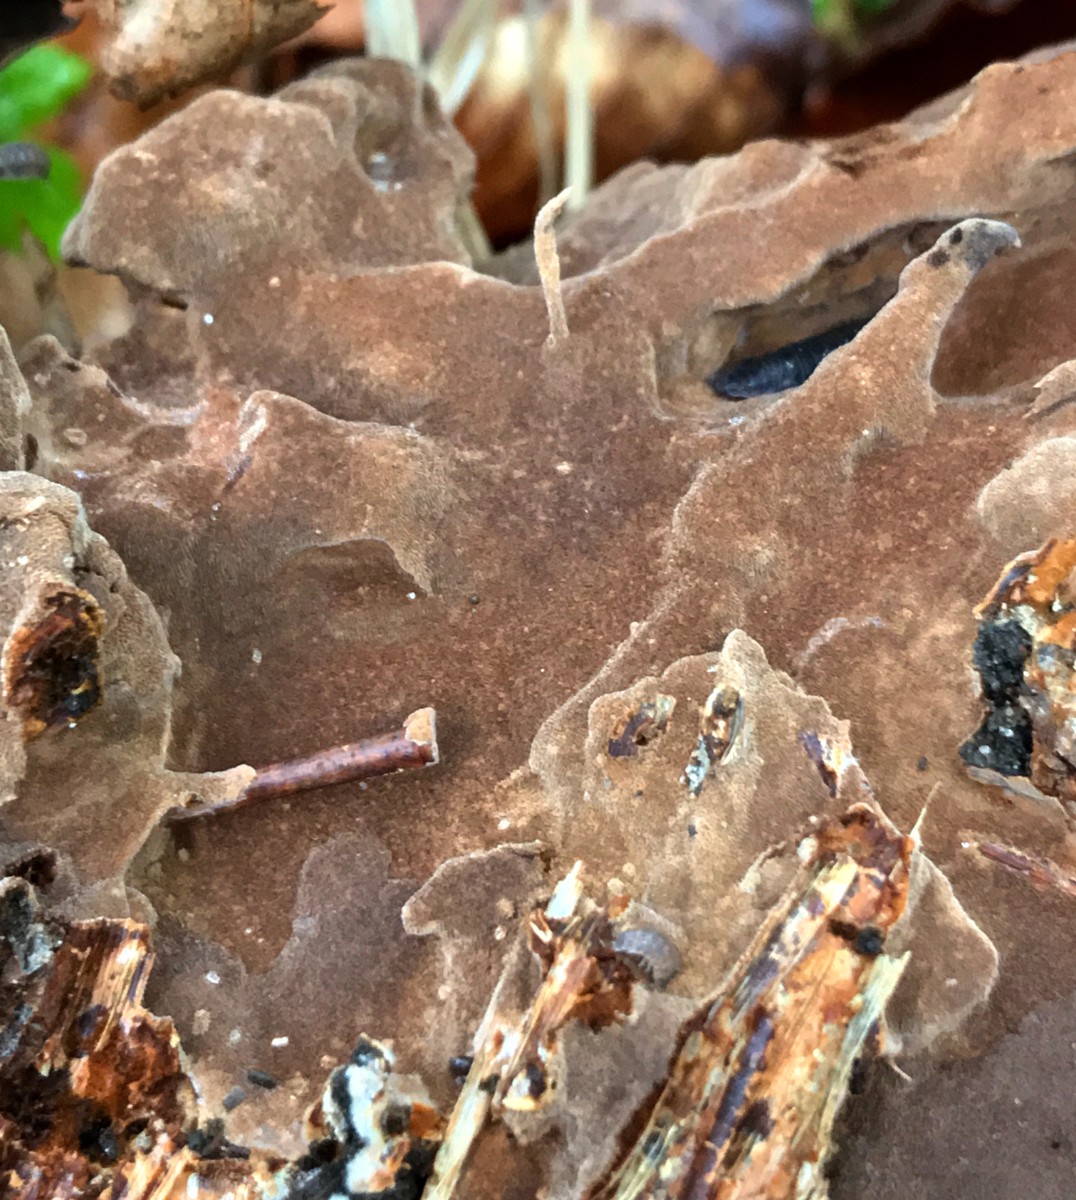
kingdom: Fungi
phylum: Basidiomycota
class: Agaricomycetes
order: Hymenochaetales
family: Hymenochaetaceae
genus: Fuscoporia
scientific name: Fuscoporia
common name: Ildporesvamp
